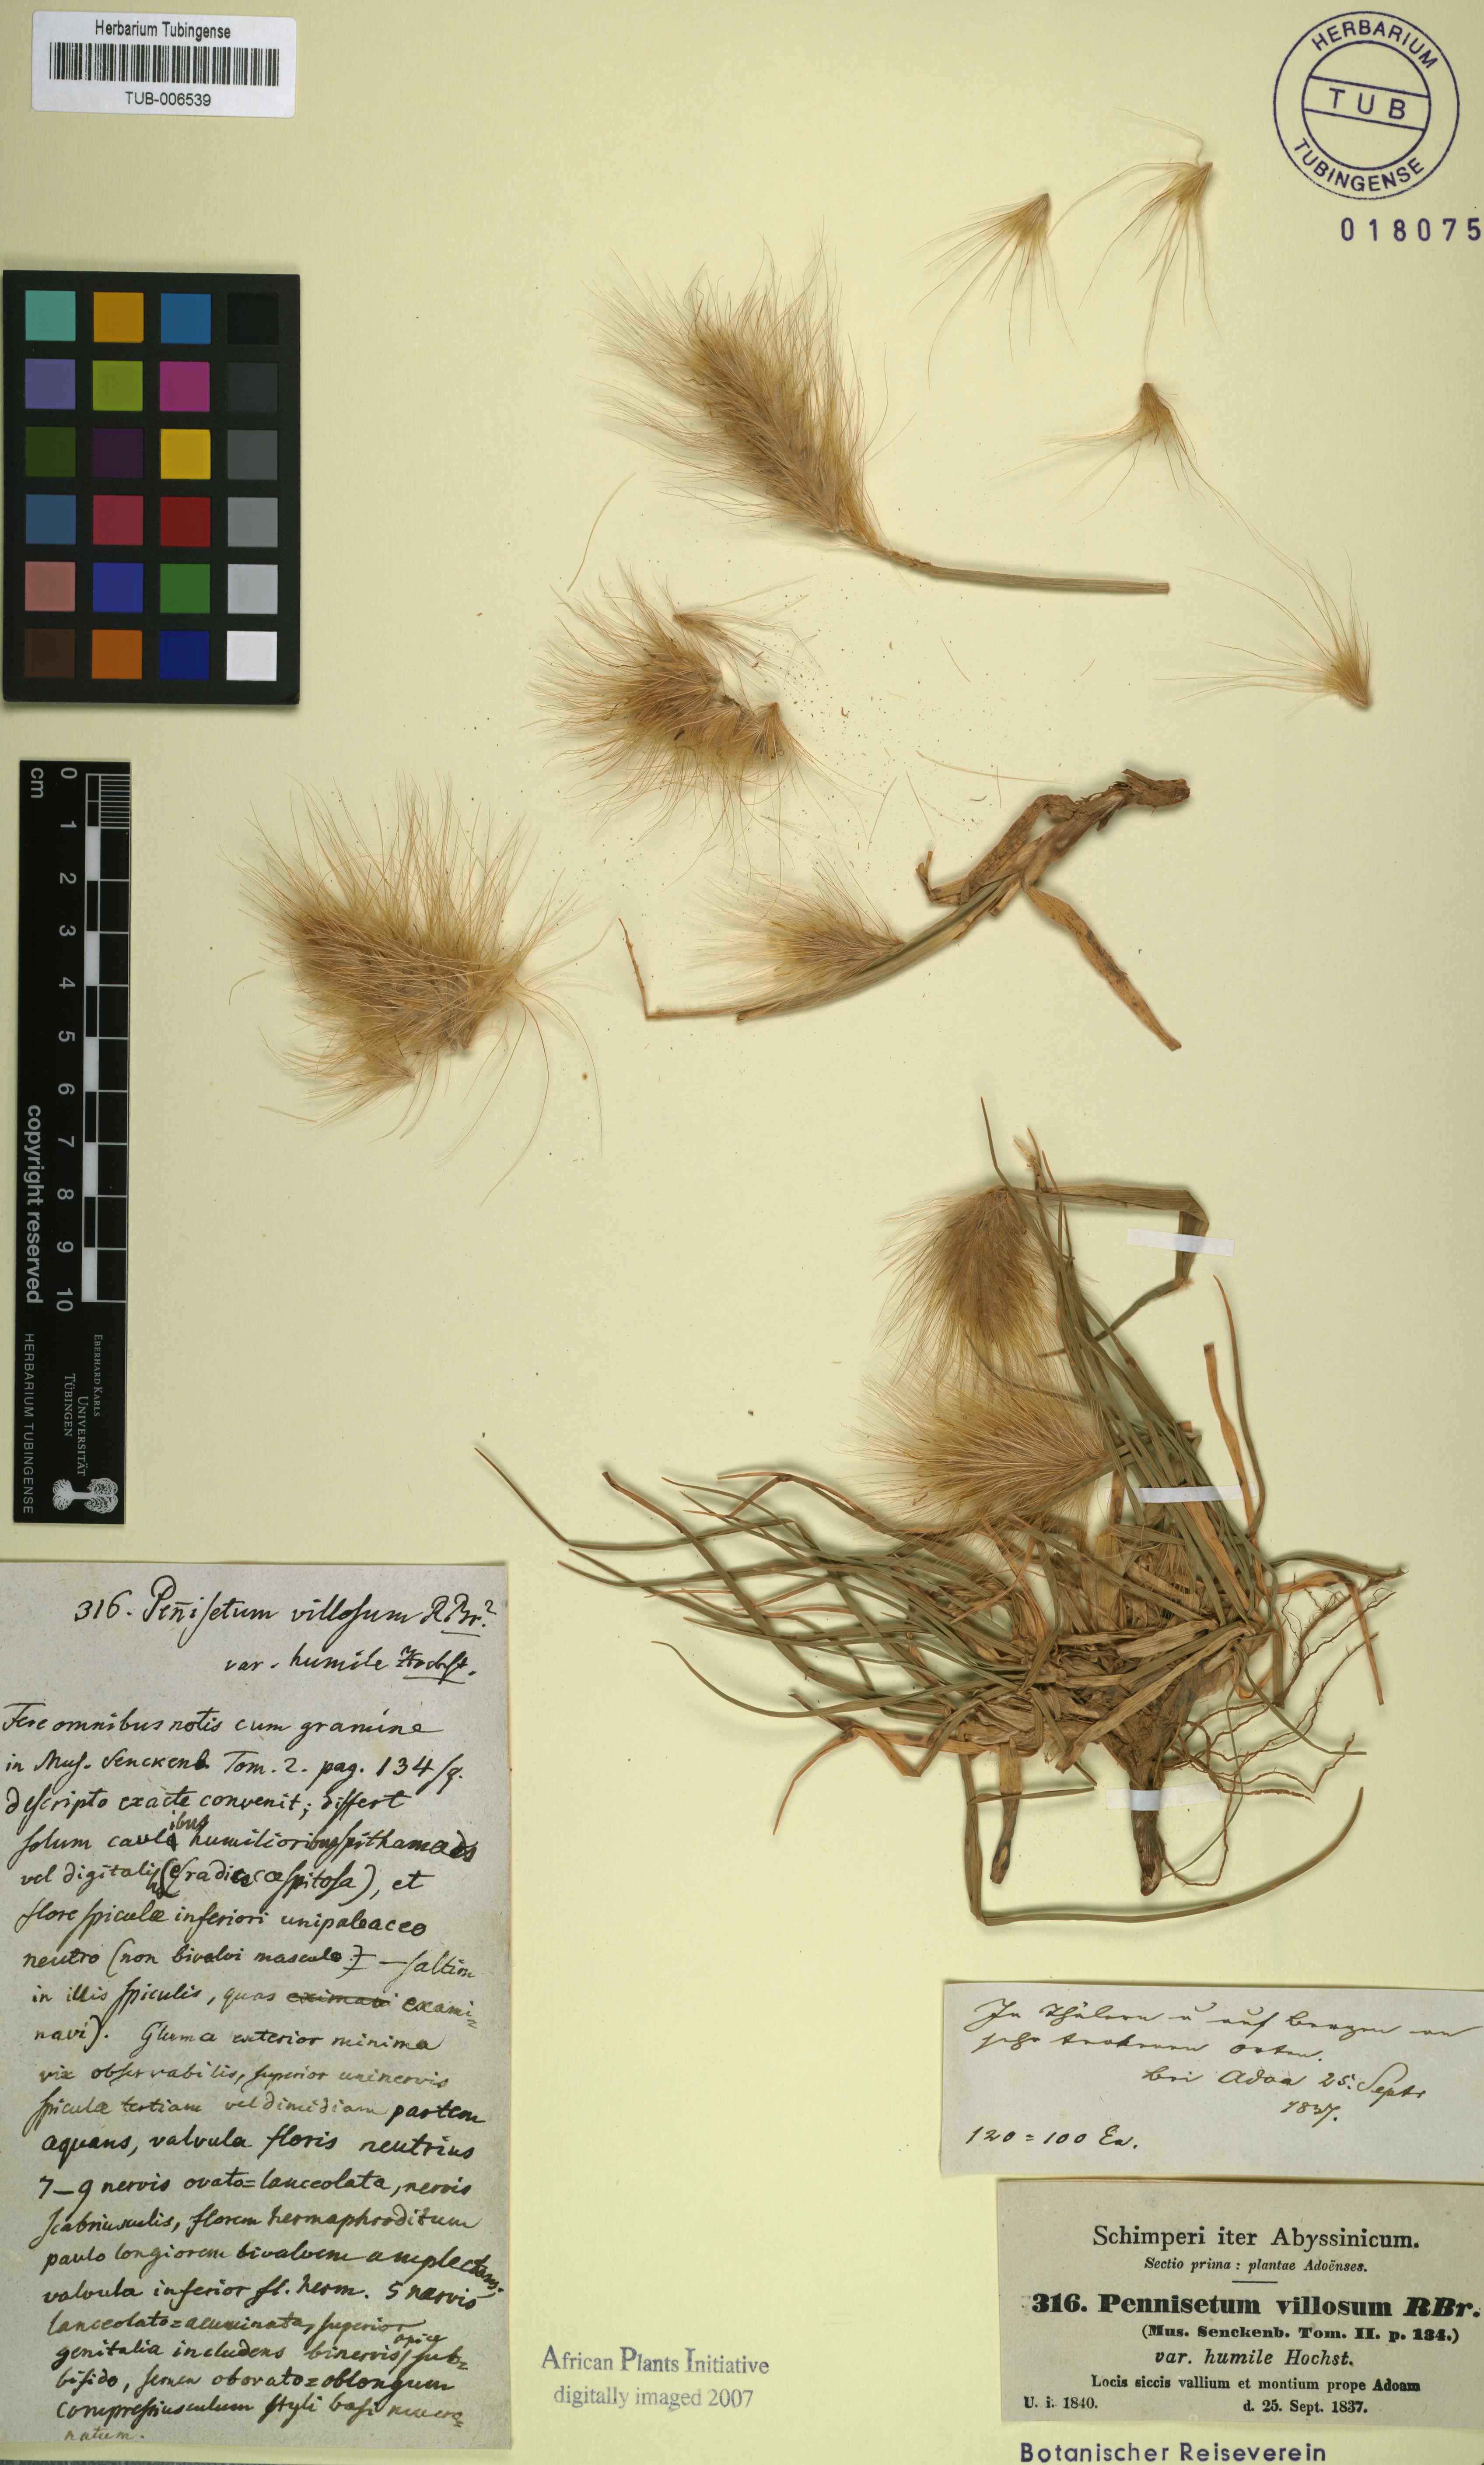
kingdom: Plantae
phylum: Tracheophyta
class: Liliopsida
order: Poales
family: Poaceae
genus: Cenchrus
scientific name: Cenchrus longisetus
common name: Feathertop
